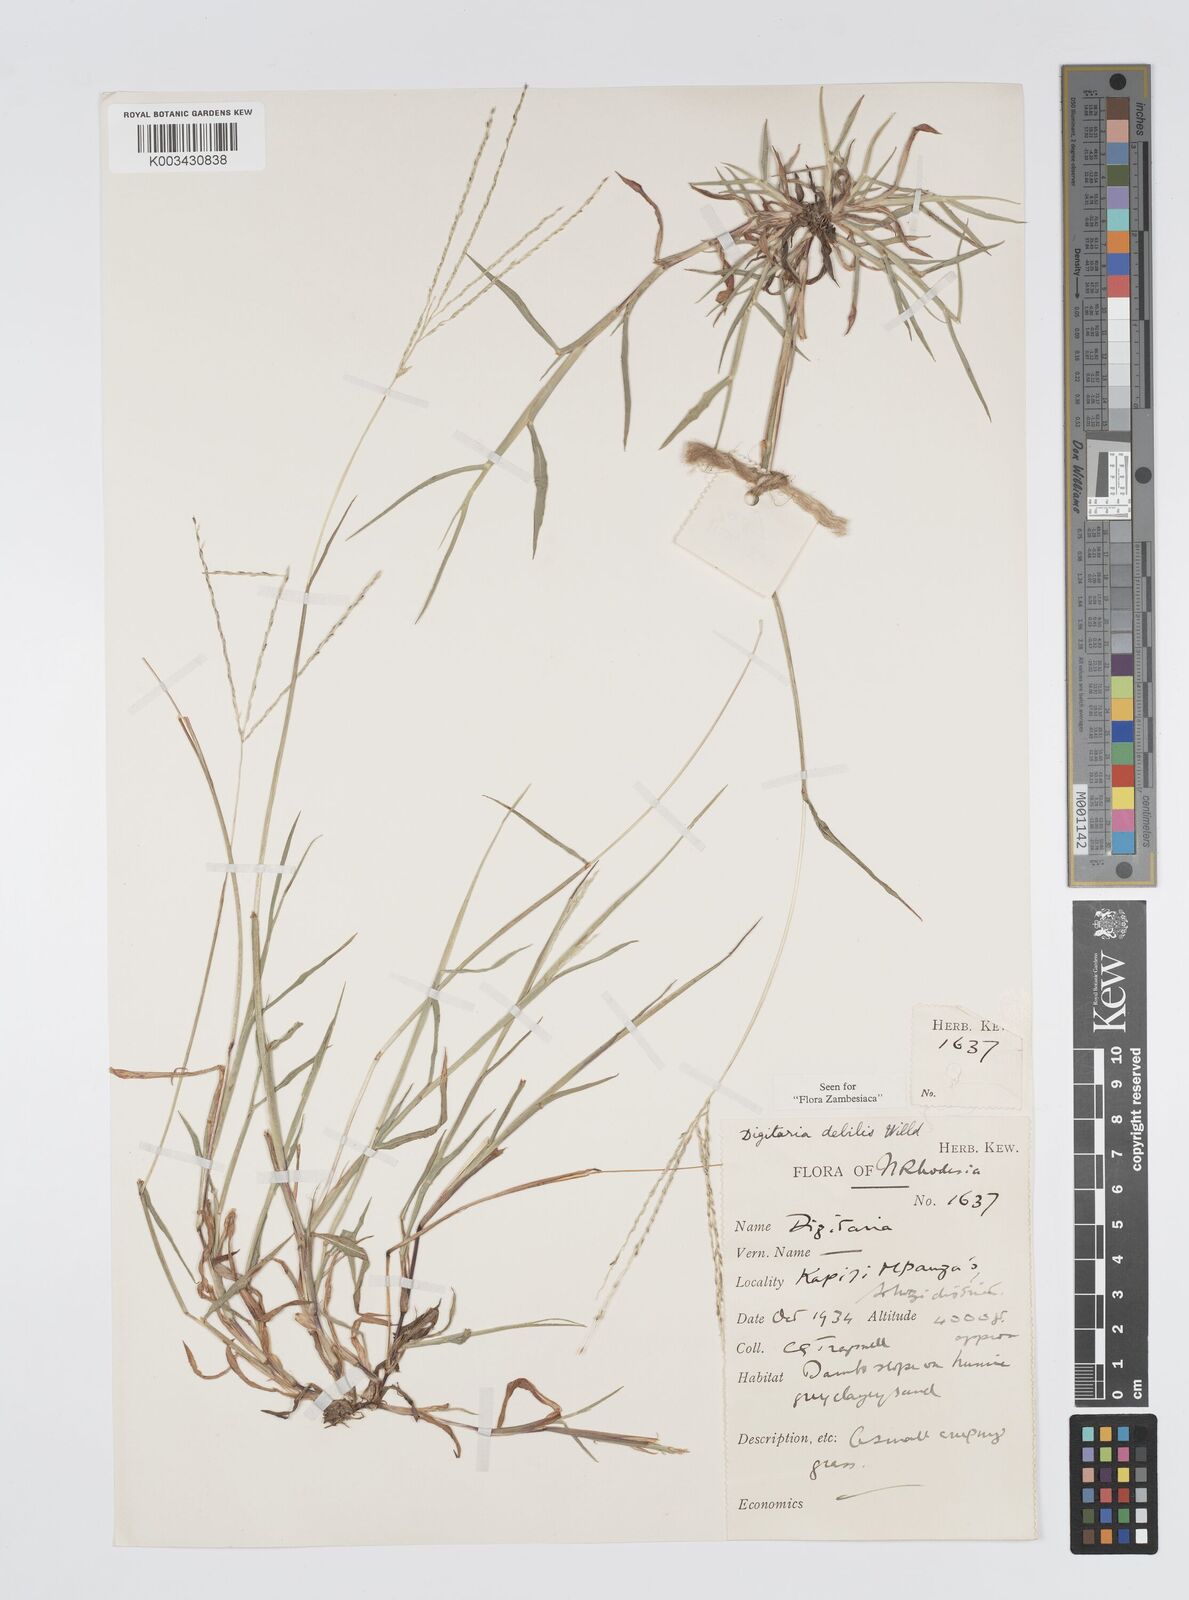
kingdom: Plantae
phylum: Tracheophyta
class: Liliopsida
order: Poales
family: Poaceae
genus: Digitaria
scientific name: Digitaria debilis
